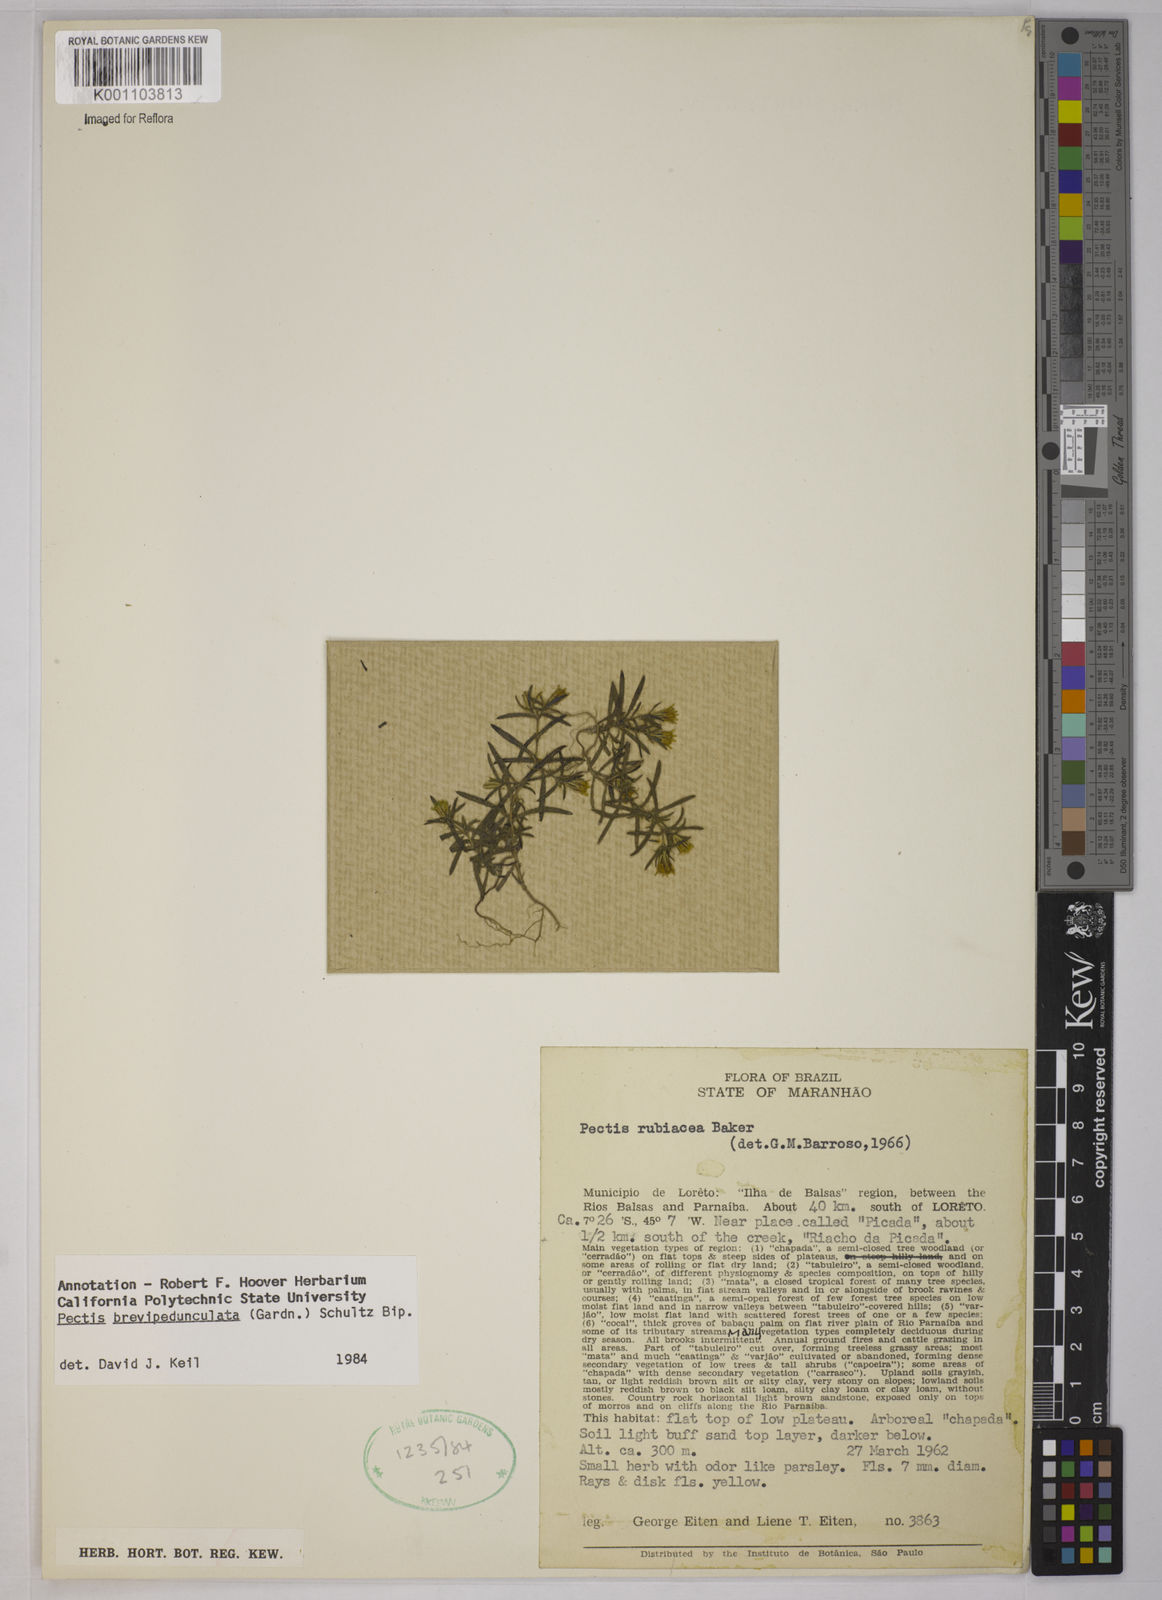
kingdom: Plantae
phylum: Tracheophyta
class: Magnoliopsida
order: Asterales
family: Asteraceae
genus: Pectis
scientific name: Pectis brevipedunculata
